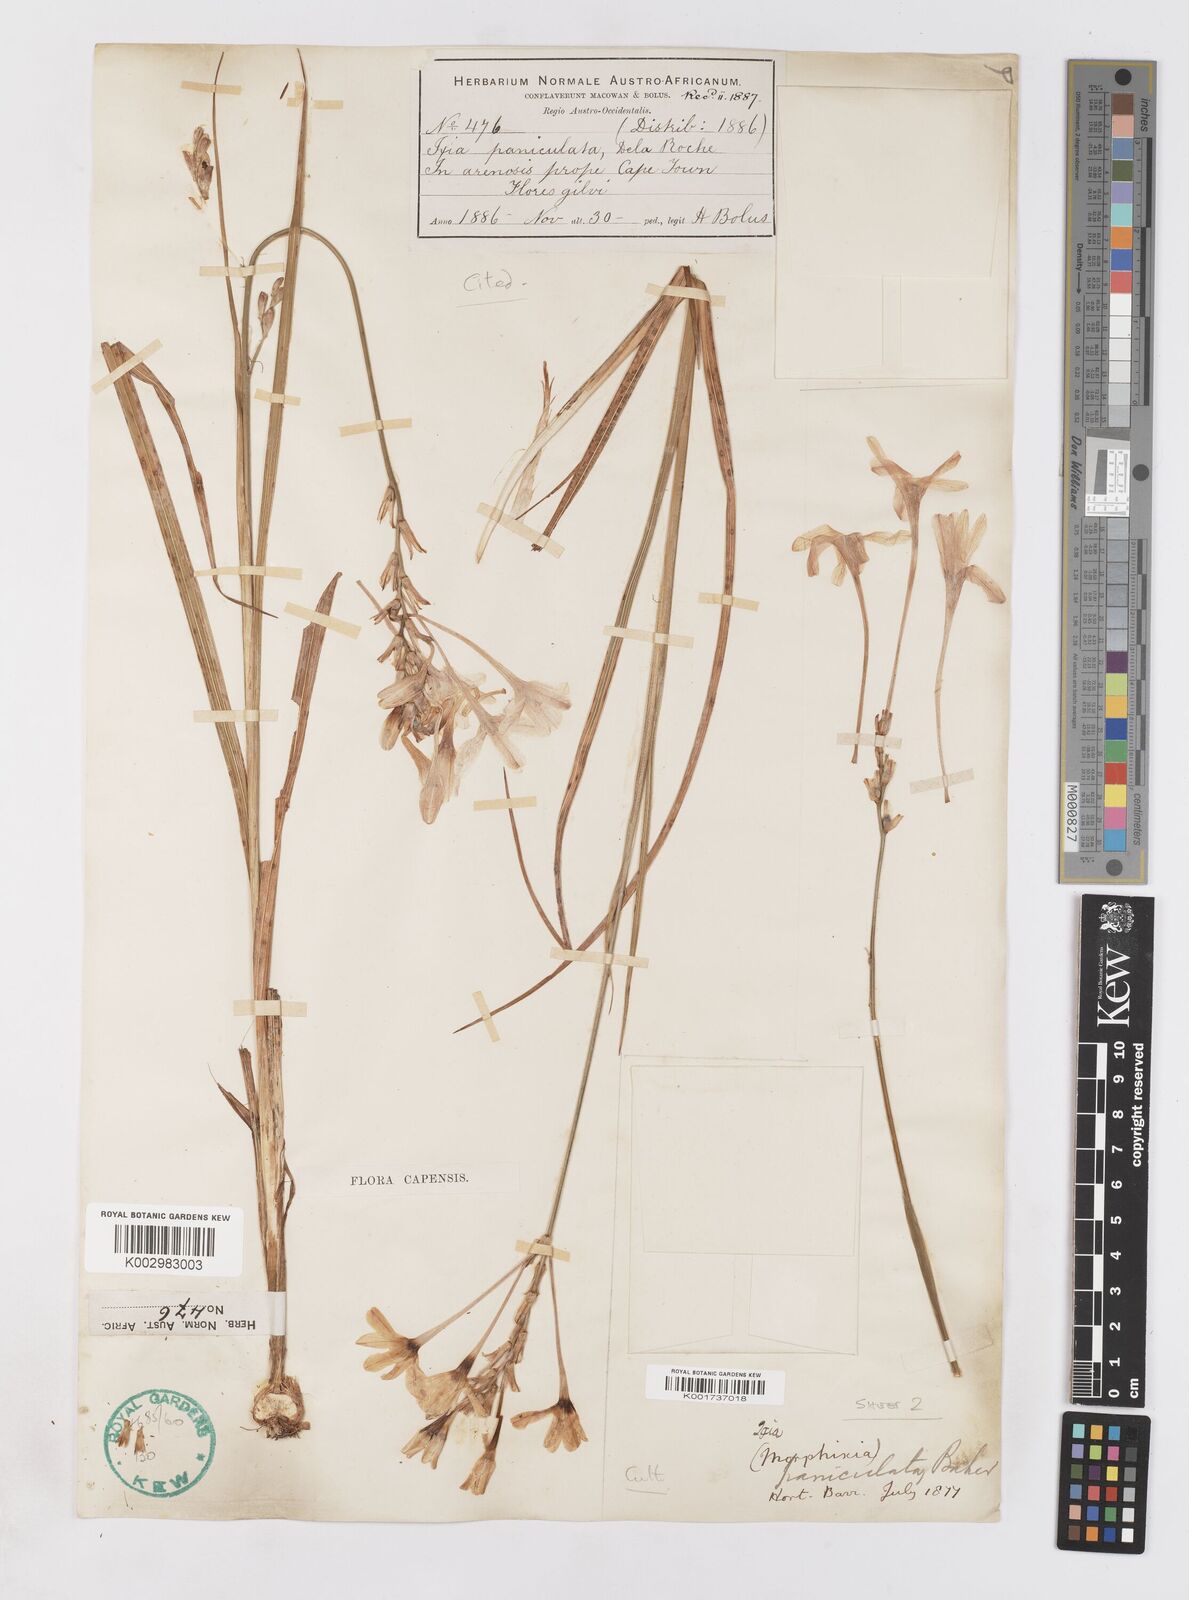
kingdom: Plantae
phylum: Tracheophyta
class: Liliopsida
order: Asparagales
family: Iridaceae
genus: Ixia
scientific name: Ixia paniculata
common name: Tubular corn-lily
